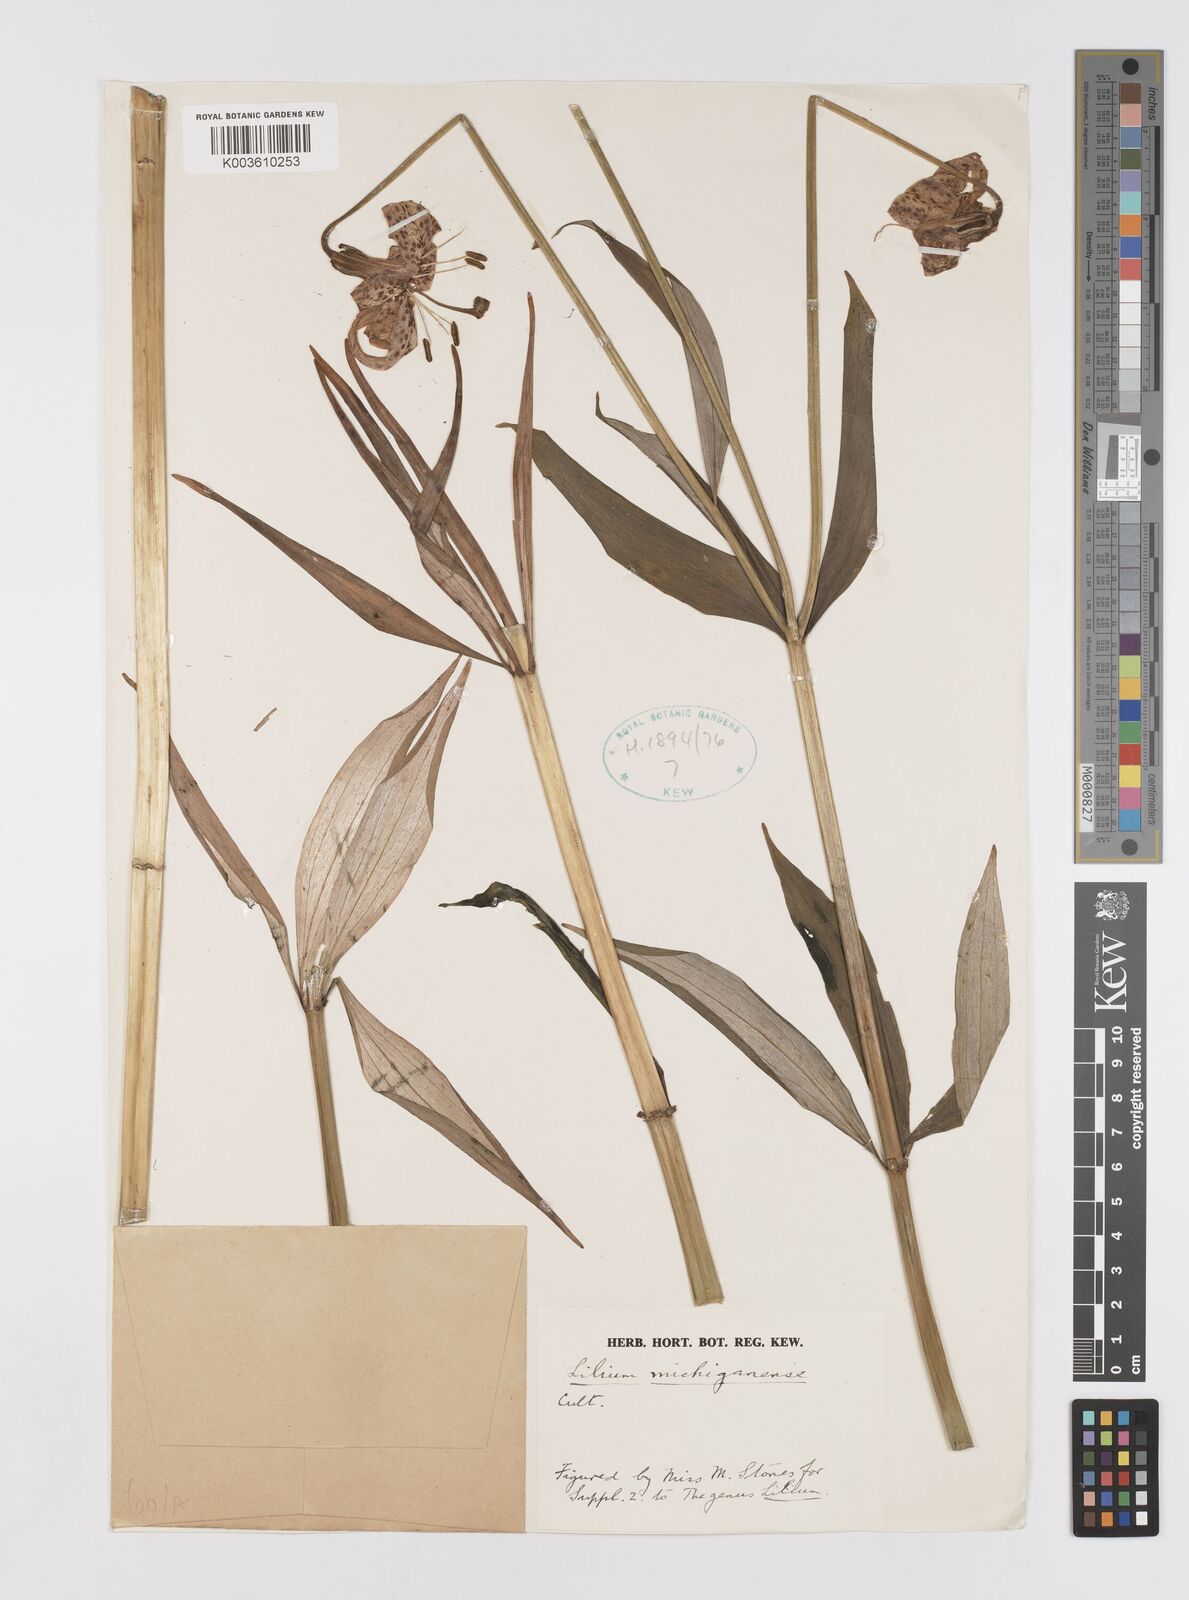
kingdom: Plantae
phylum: Tracheophyta
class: Liliopsida
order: Liliales
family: Liliaceae
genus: Lilium
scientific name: Lilium michiganense
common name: Michigan lily
